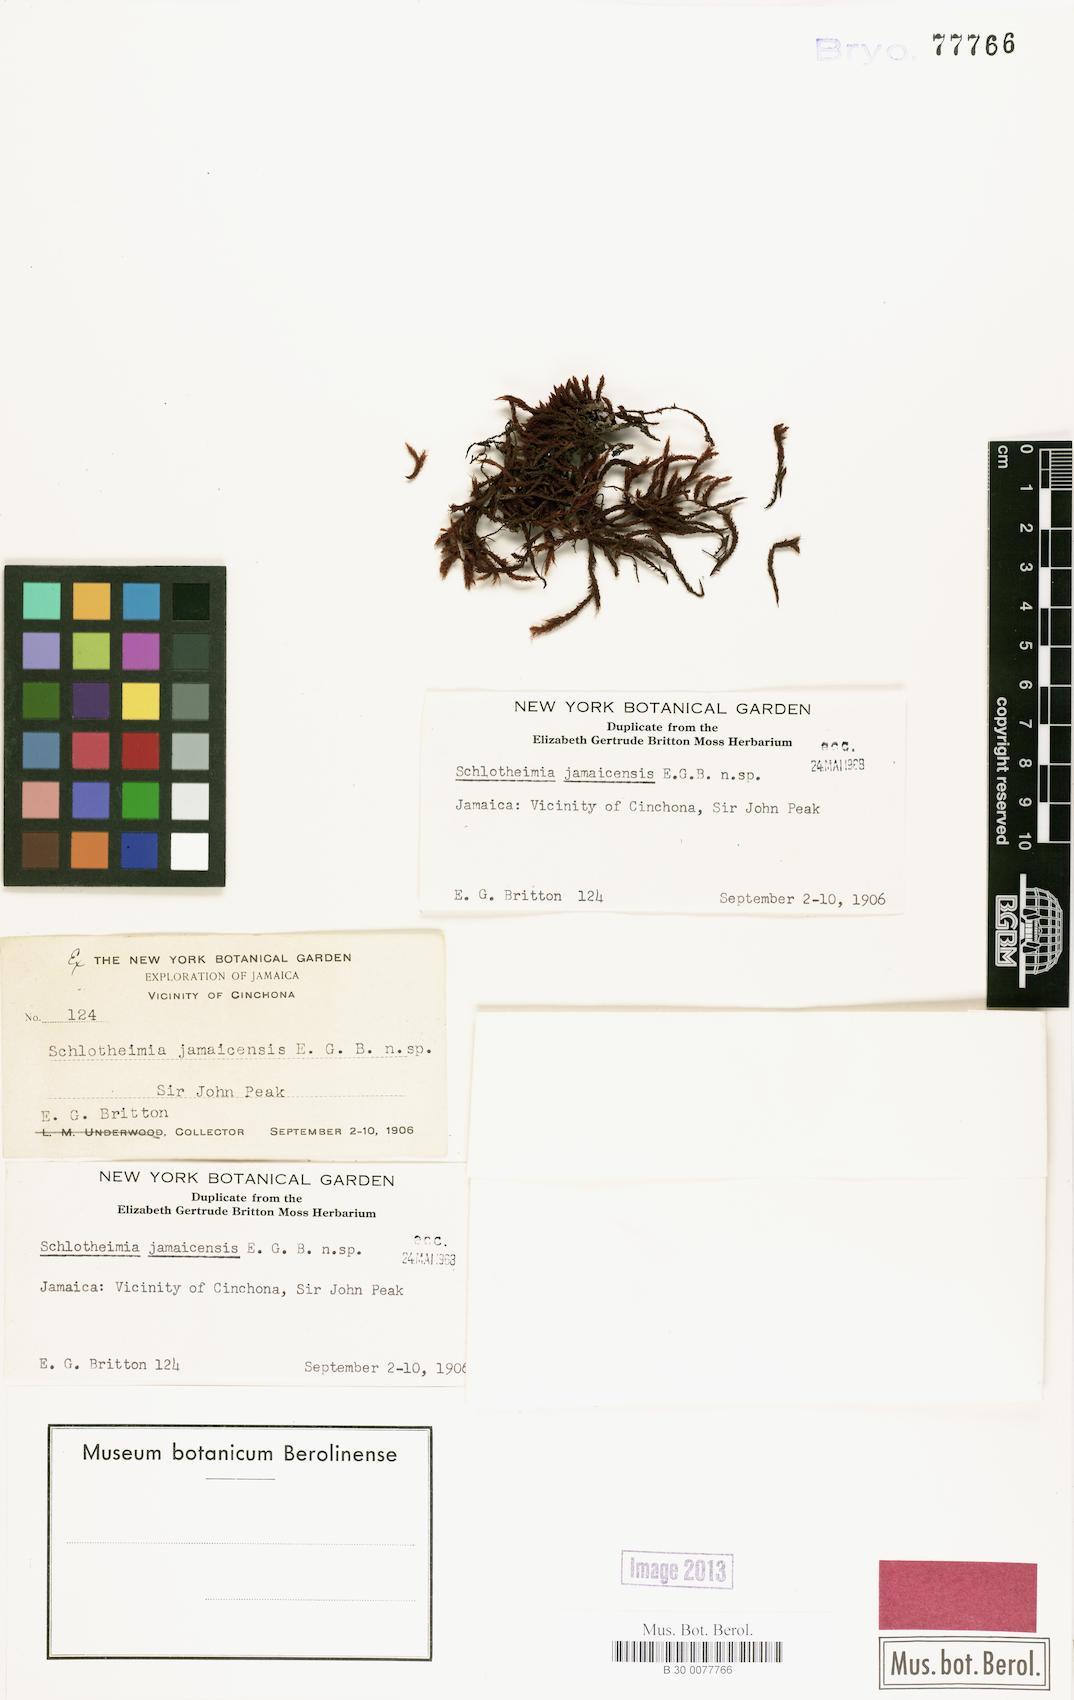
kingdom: Plantae
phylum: Bryophyta
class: Bryopsida
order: Orthotrichales
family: Orthotrichaceae
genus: Schlotheimia
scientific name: Schlotheimia
